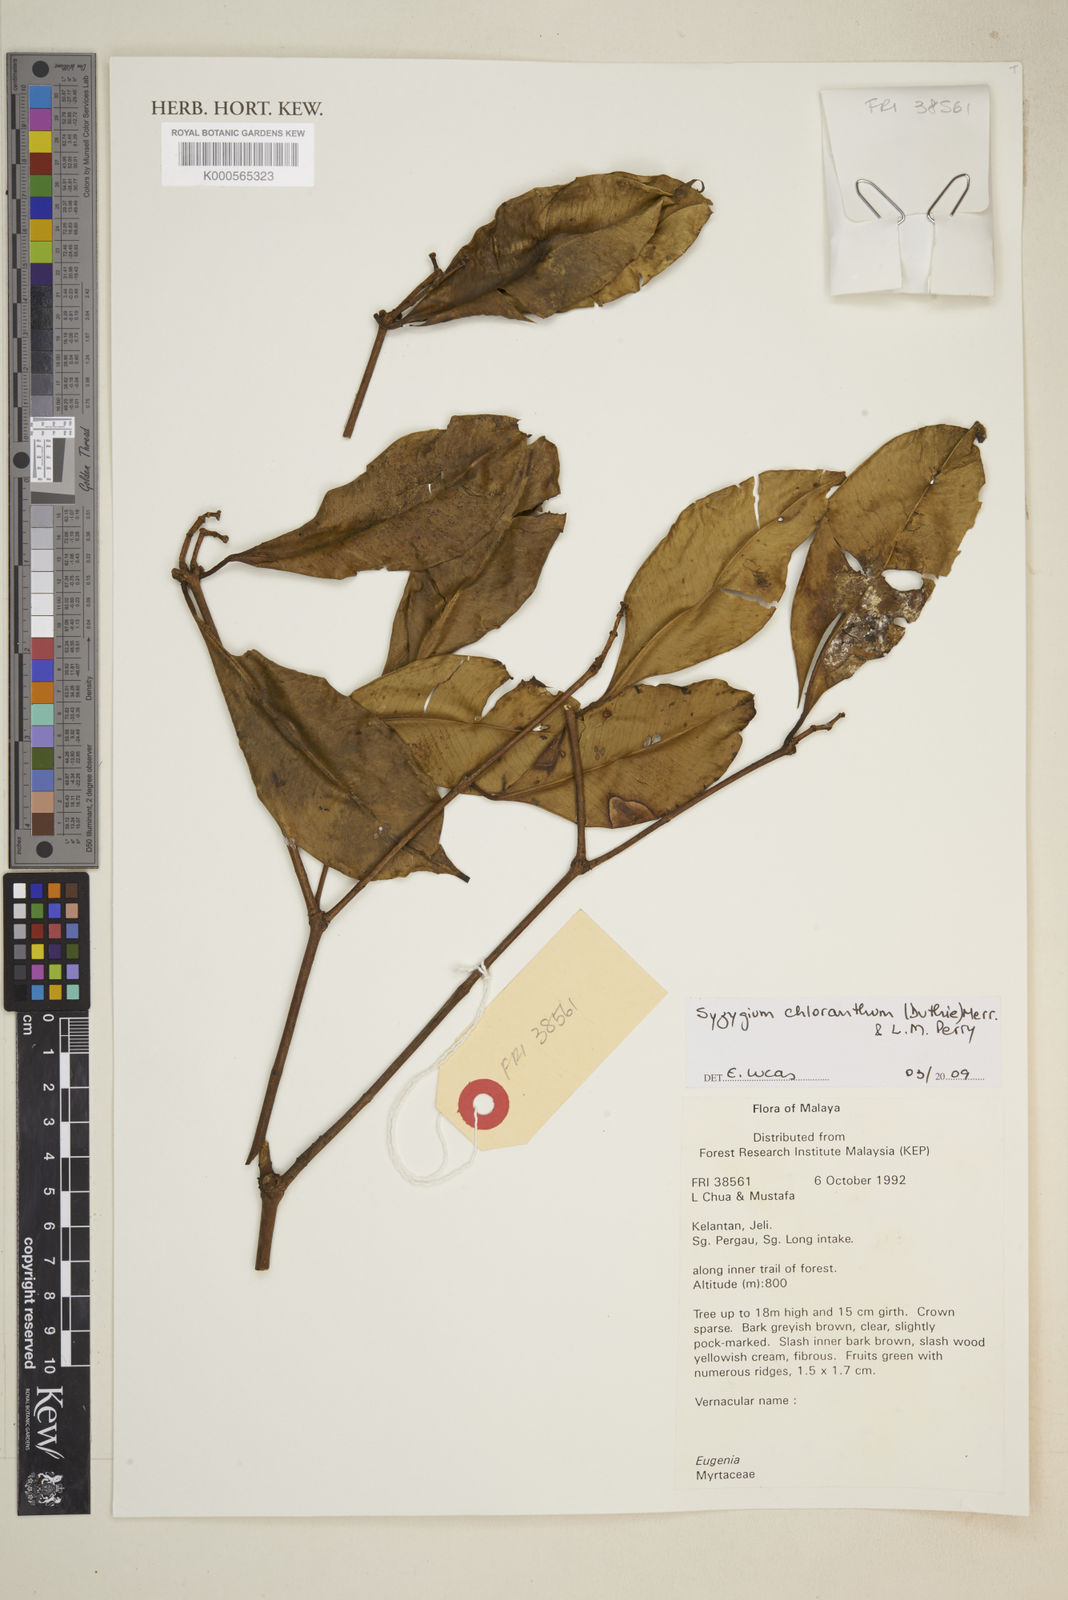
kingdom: Plantae
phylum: Tracheophyta
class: Magnoliopsida
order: Myrtales
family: Myrtaceae
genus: Syzygium
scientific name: Syzygium chloranthum
